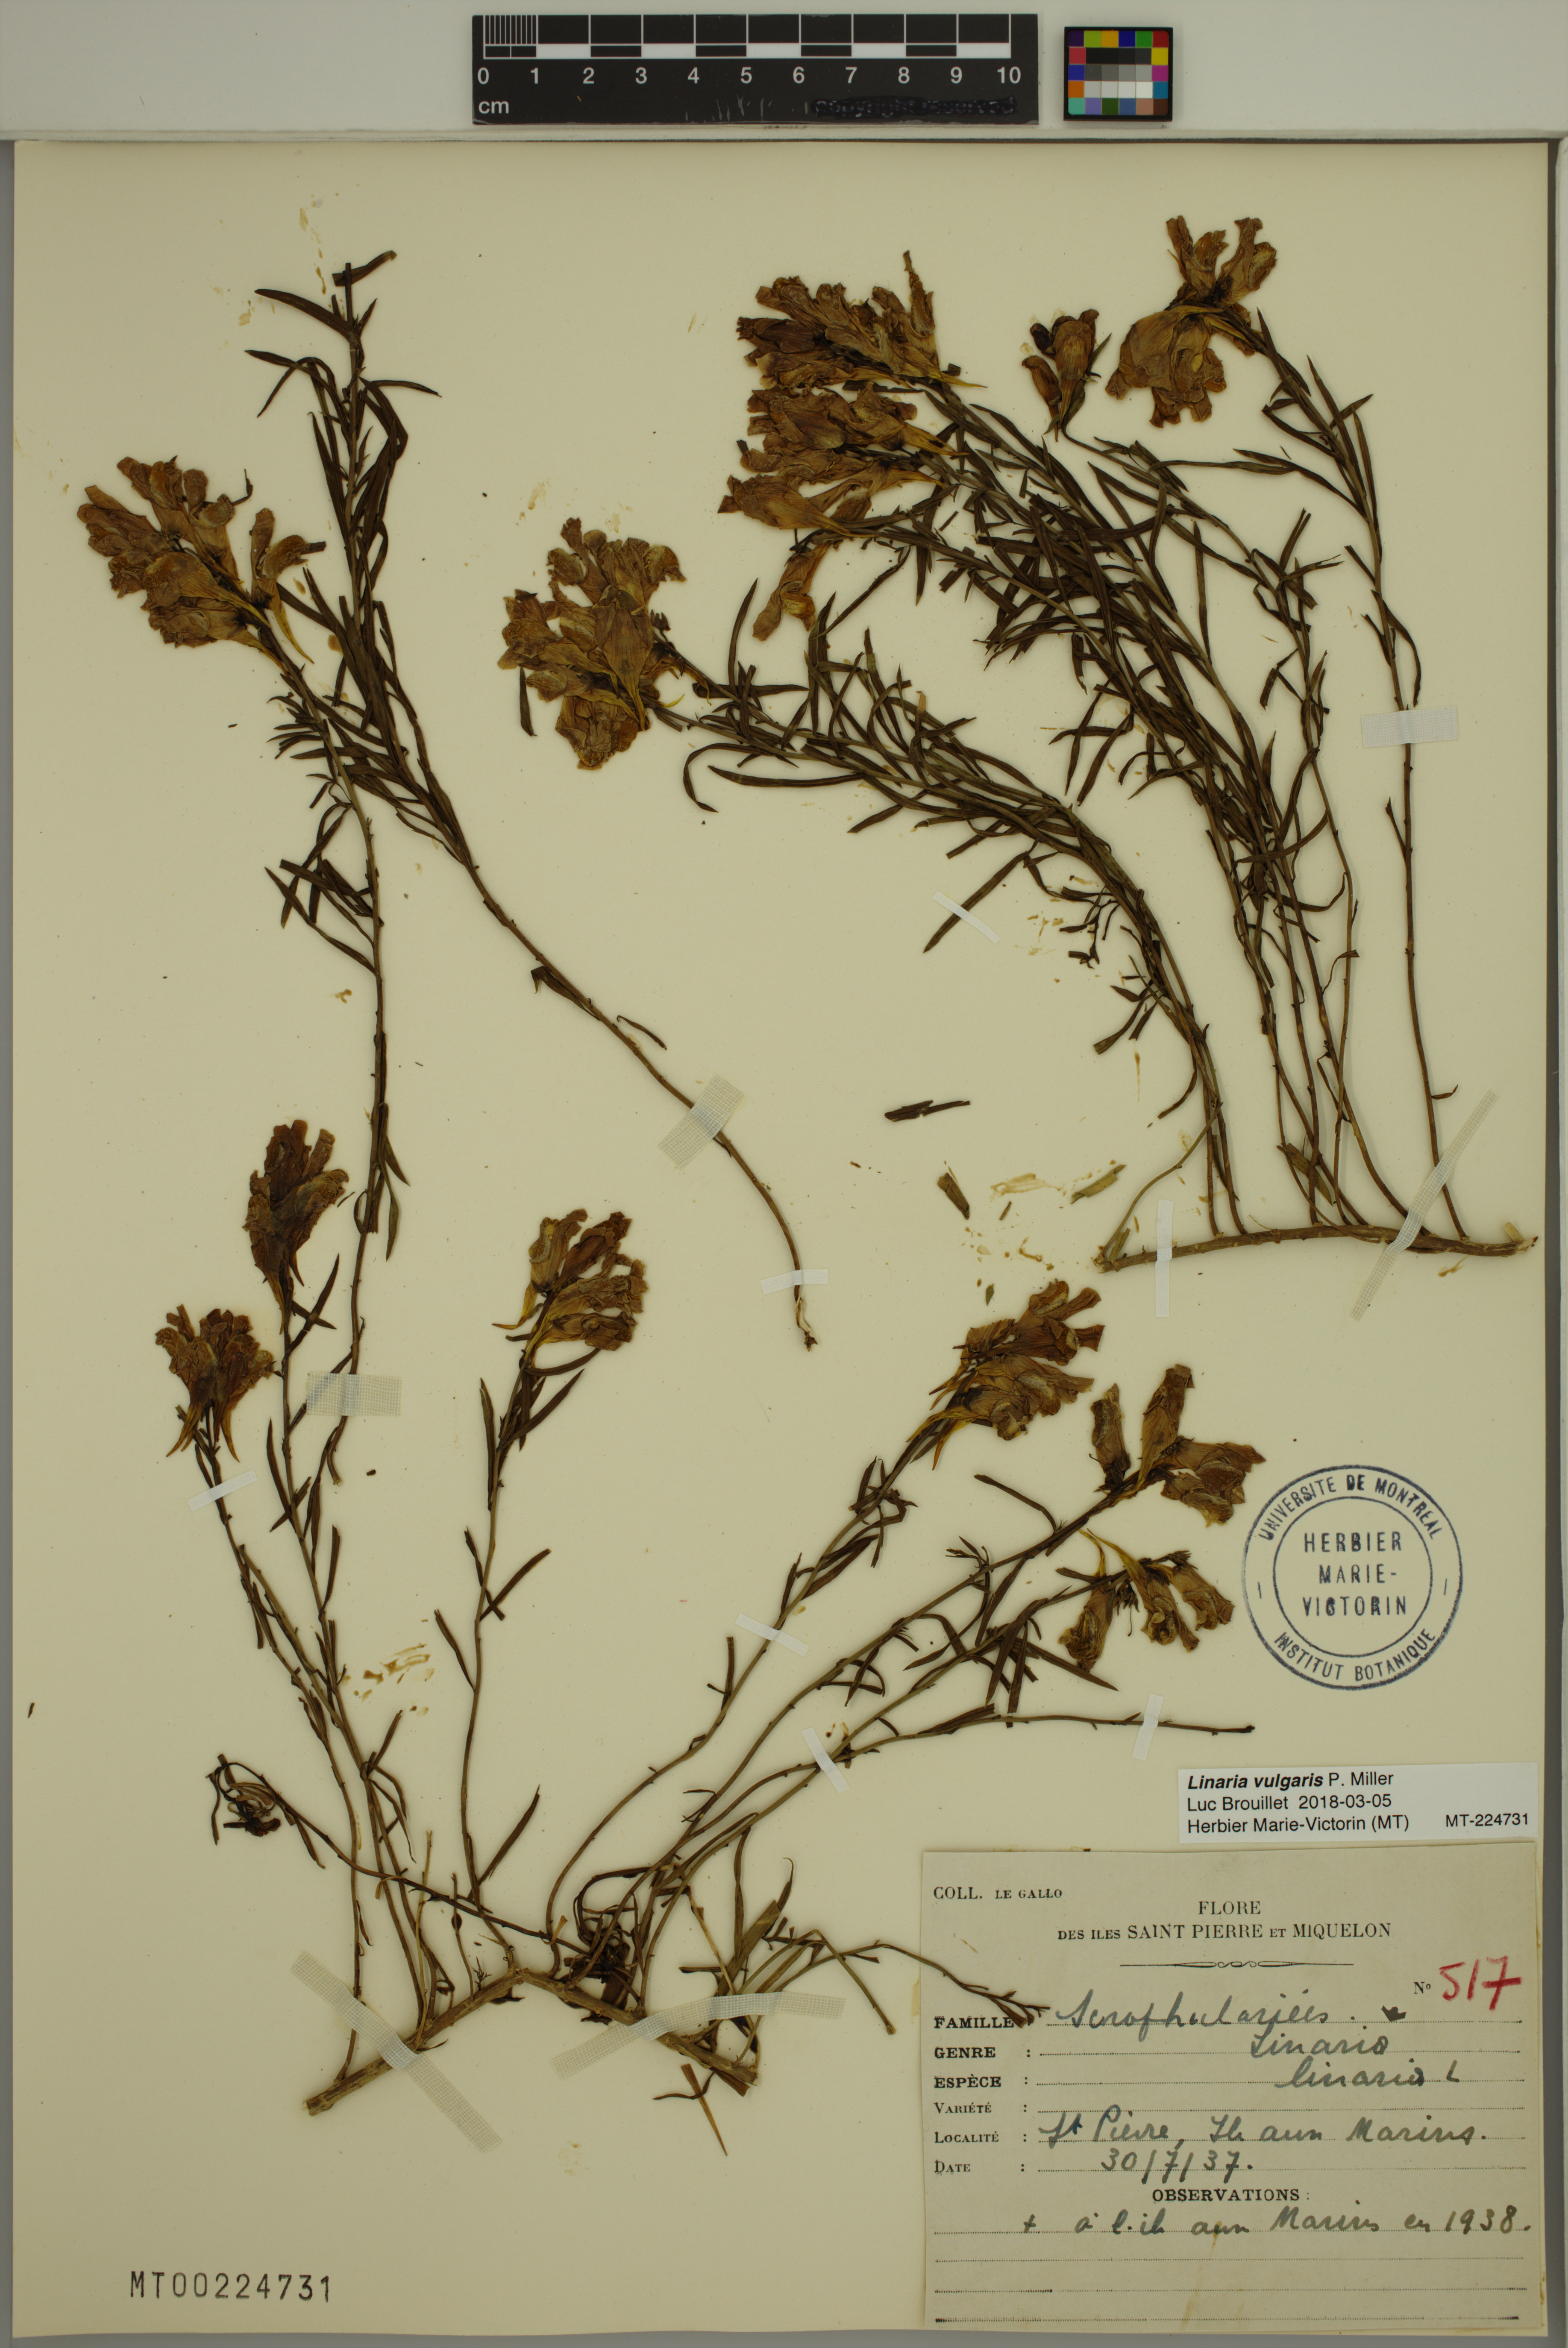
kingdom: Plantae
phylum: Tracheophyta
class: Magnoliopsida
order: Lamiales
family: Plantaginaceae
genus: Linaria
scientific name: Linaria vulgaris
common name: Butter and eggs
